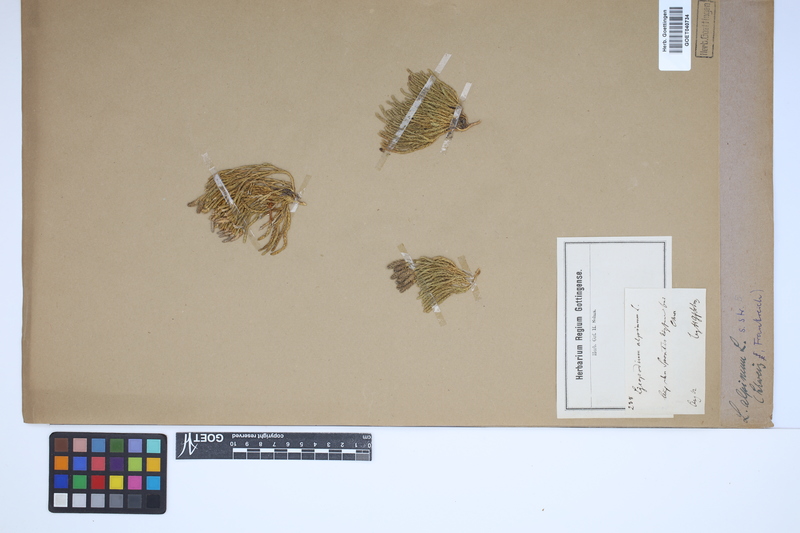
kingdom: Plantae
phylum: Tracheophyta
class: Lycopodiopsida
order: Lycopodiales
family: Lycopodiaceae
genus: Diphasiastrum
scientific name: Diphasiastrum alpinum
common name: Alpine clubmoss
